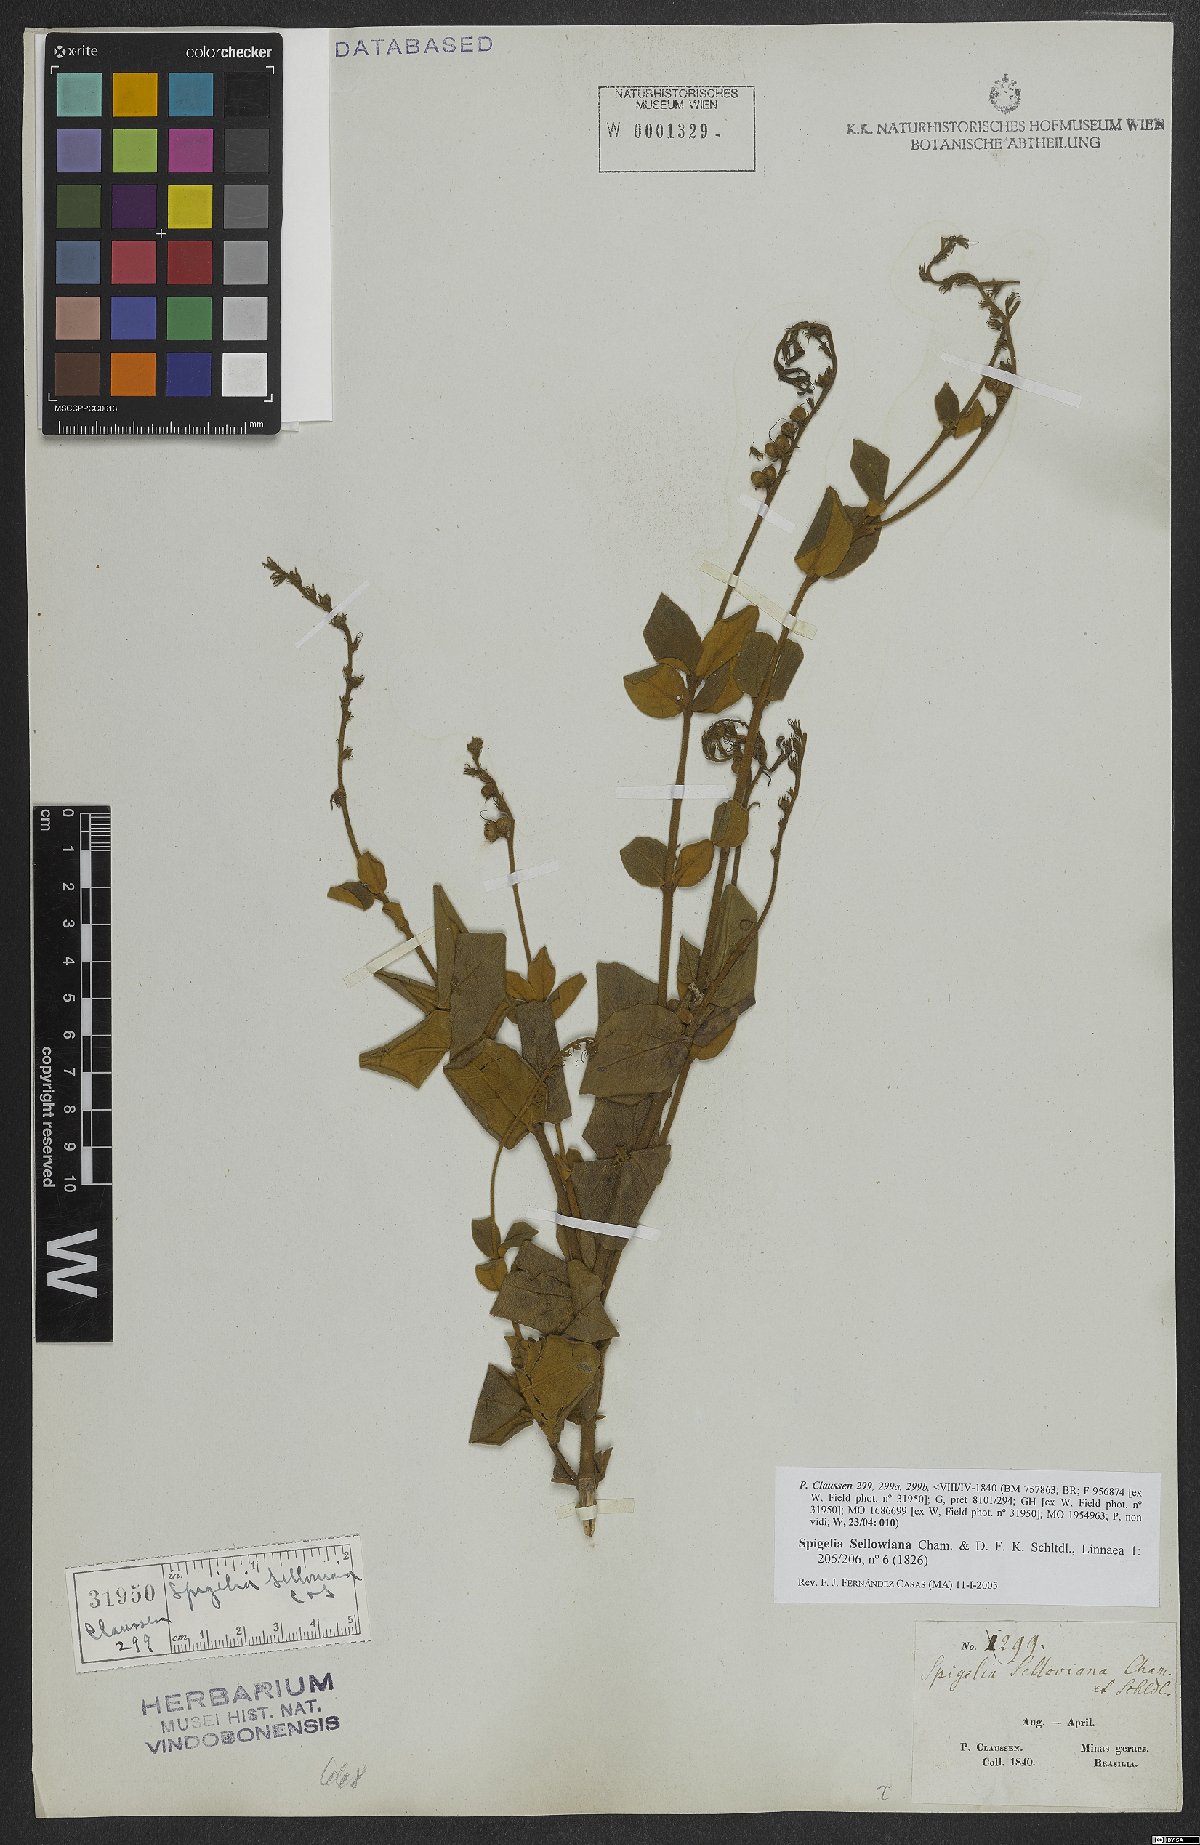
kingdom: Plantae
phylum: Tracheophyta
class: Magnoliopsida
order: Gentianales
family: Loganiaceae
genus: Spigelia
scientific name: Spigelia sellowiana
